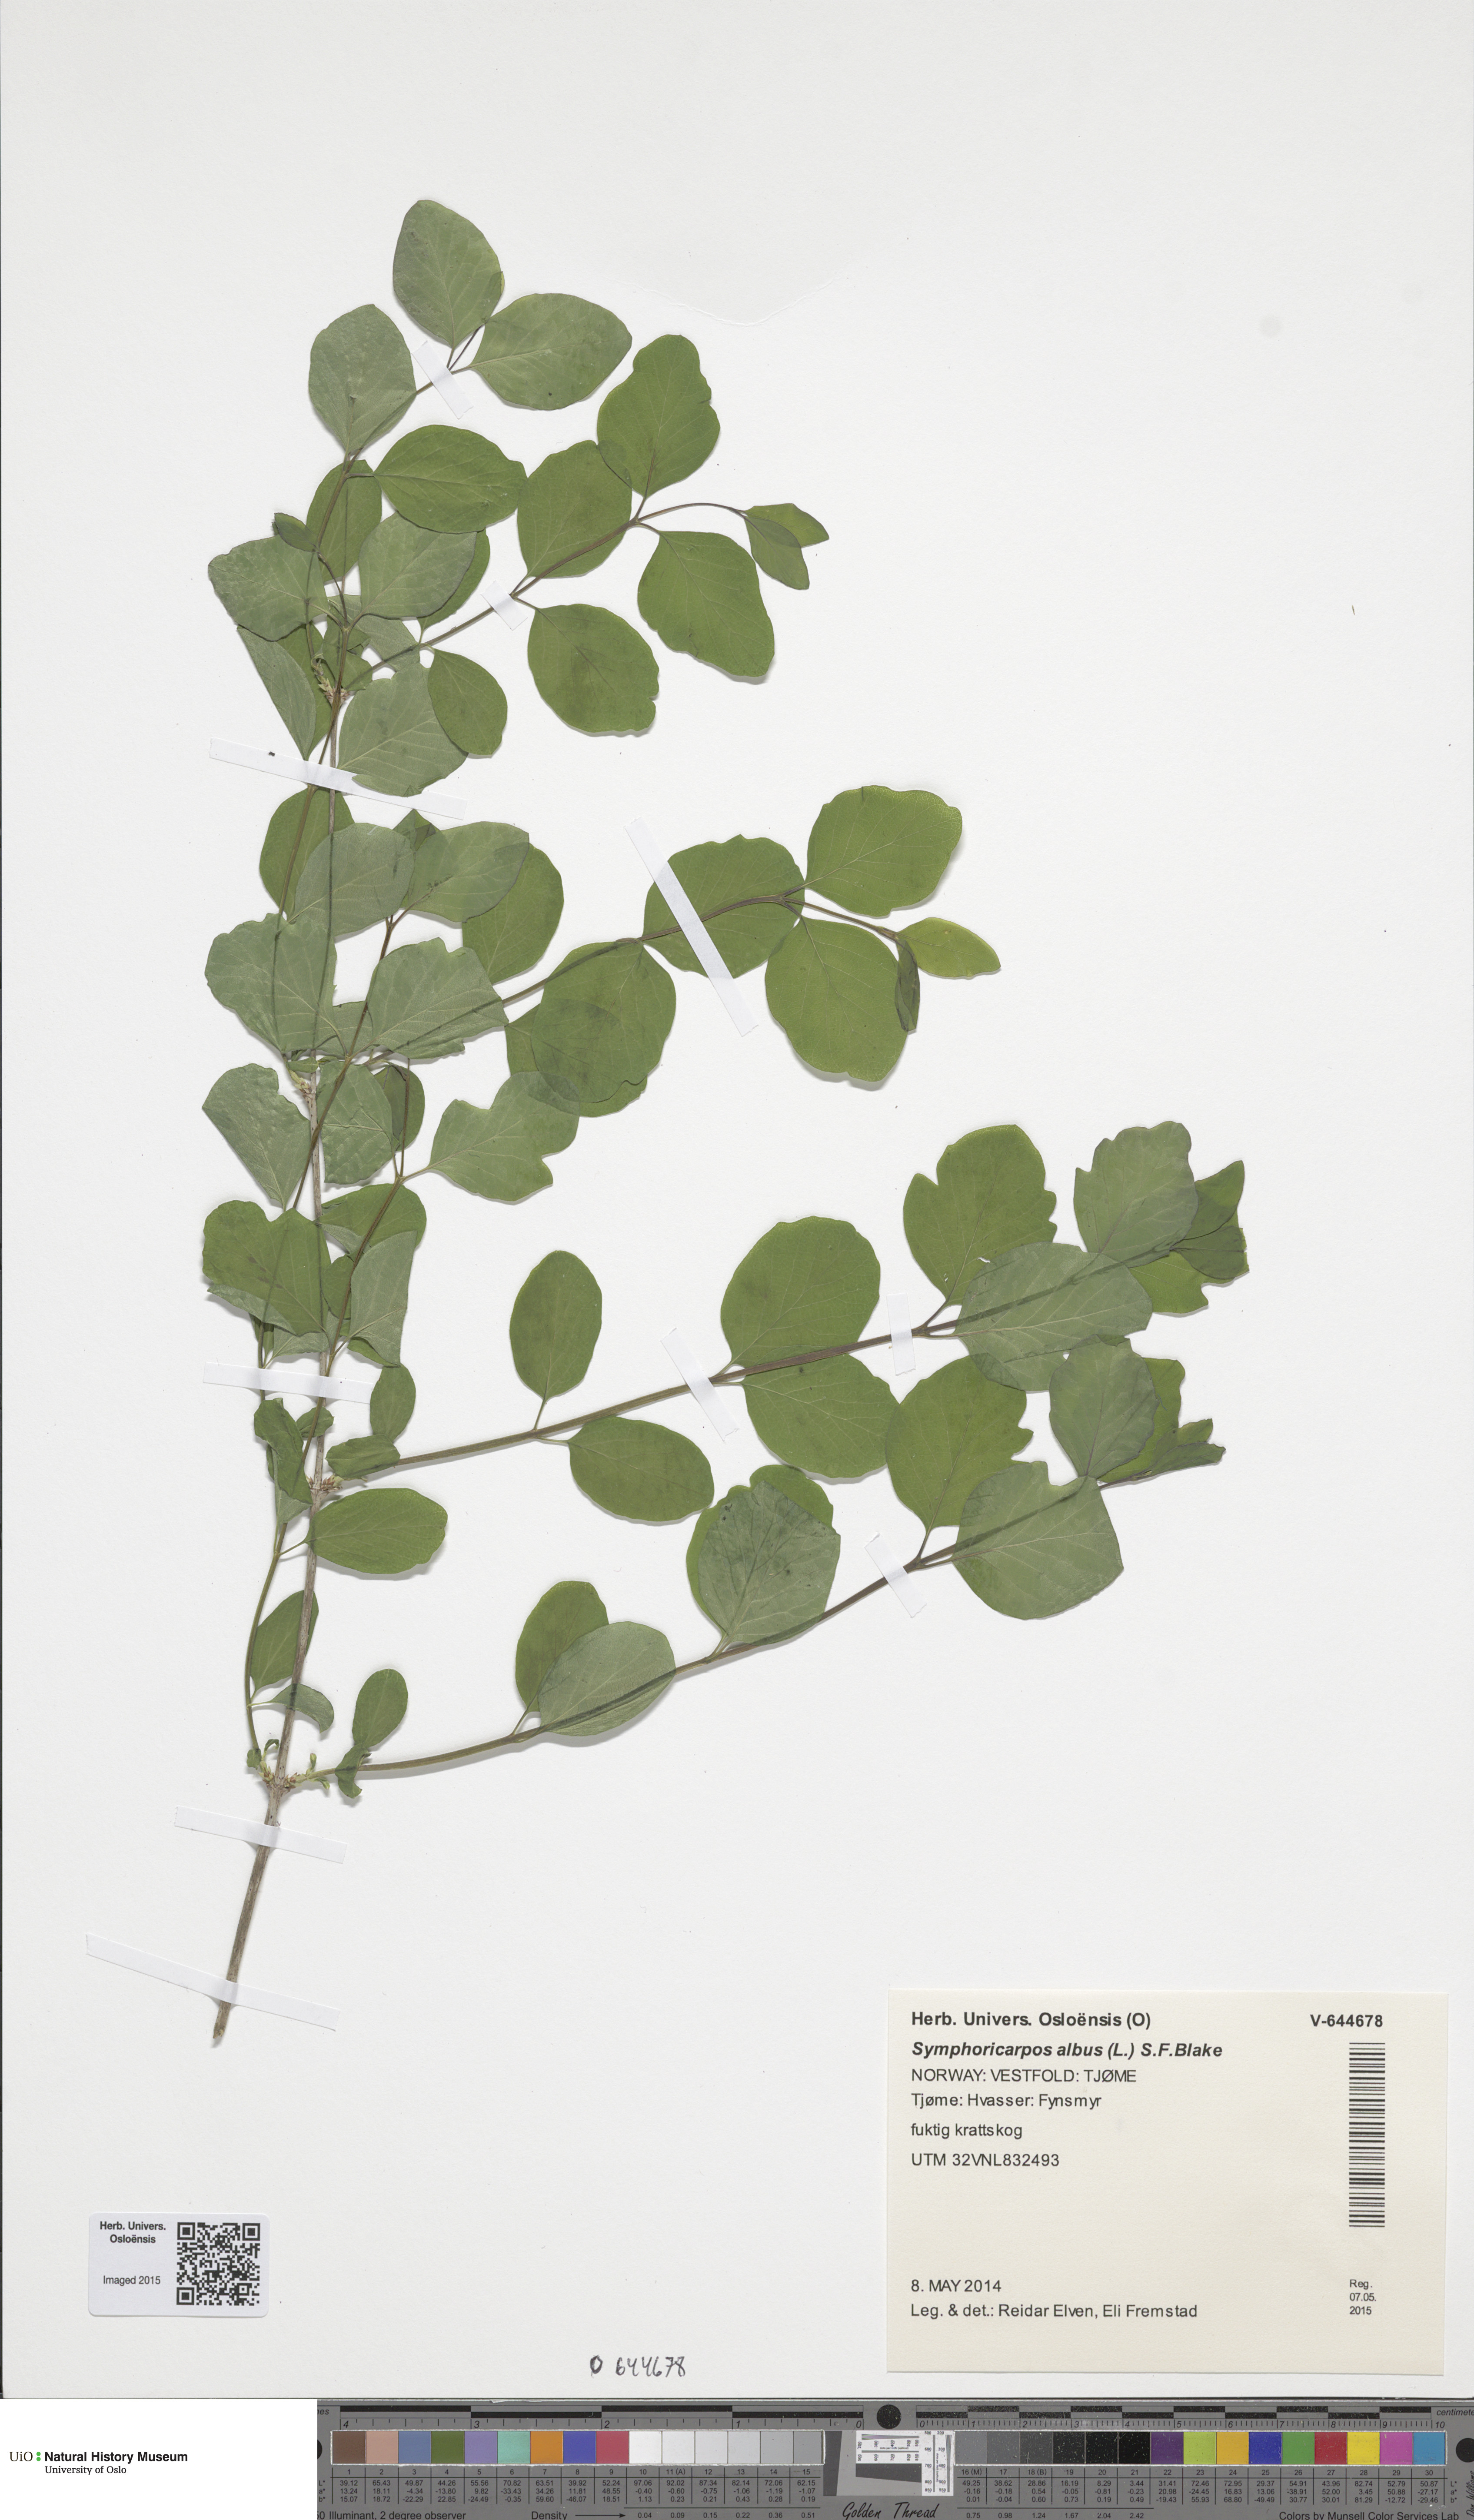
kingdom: Plantae
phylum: Tracheophyta
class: Magnoliopsida
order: Dipsacales
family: Caprifoliaceae
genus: Symphoricarpos
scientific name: Symphoricarpos albus
